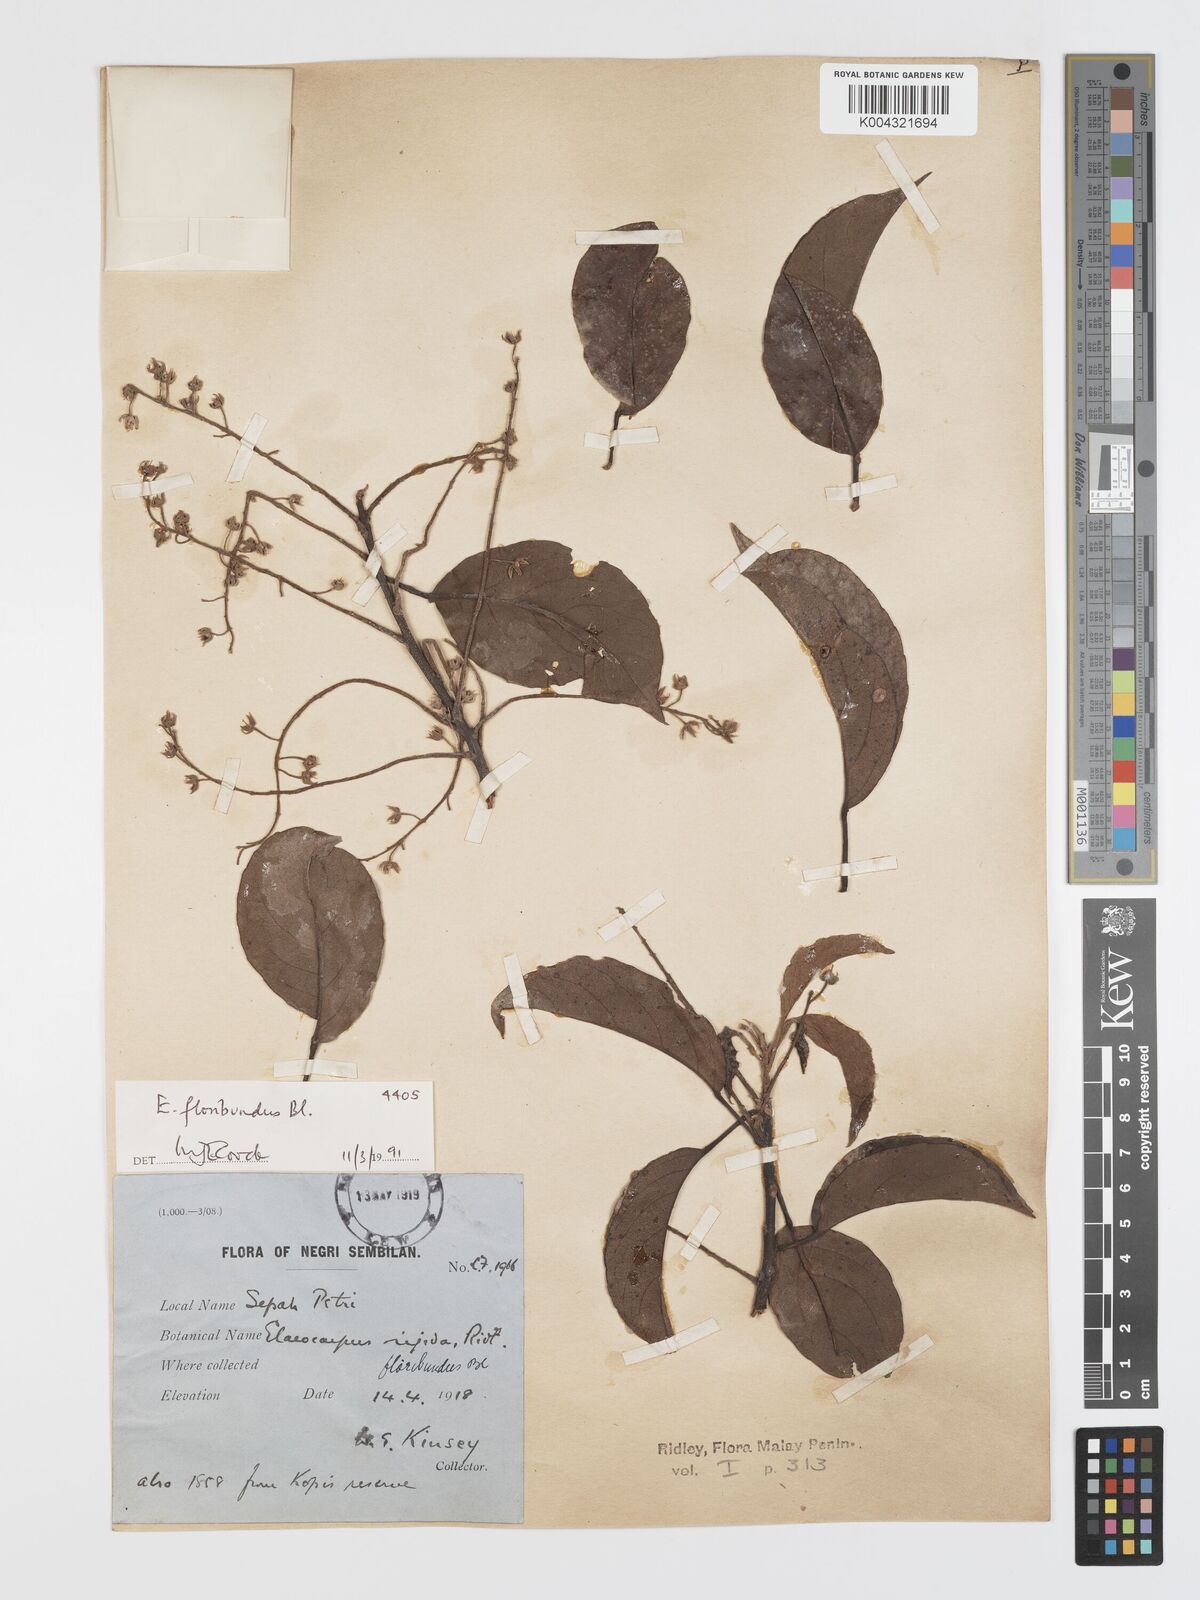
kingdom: Plantae
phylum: Tracheophyta
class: Magnoliopsida
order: Oxalidales
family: Elaeocarpaceae
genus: Elaeocarpus
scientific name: Elaeocarpus floribundus
